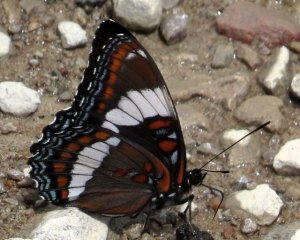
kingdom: Animalia
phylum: Arthropoda
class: Insecta
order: Lepidoptera
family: Nymphalidae
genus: Limenitis
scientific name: Limenitis arthemis
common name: Red-spotted Admiral
